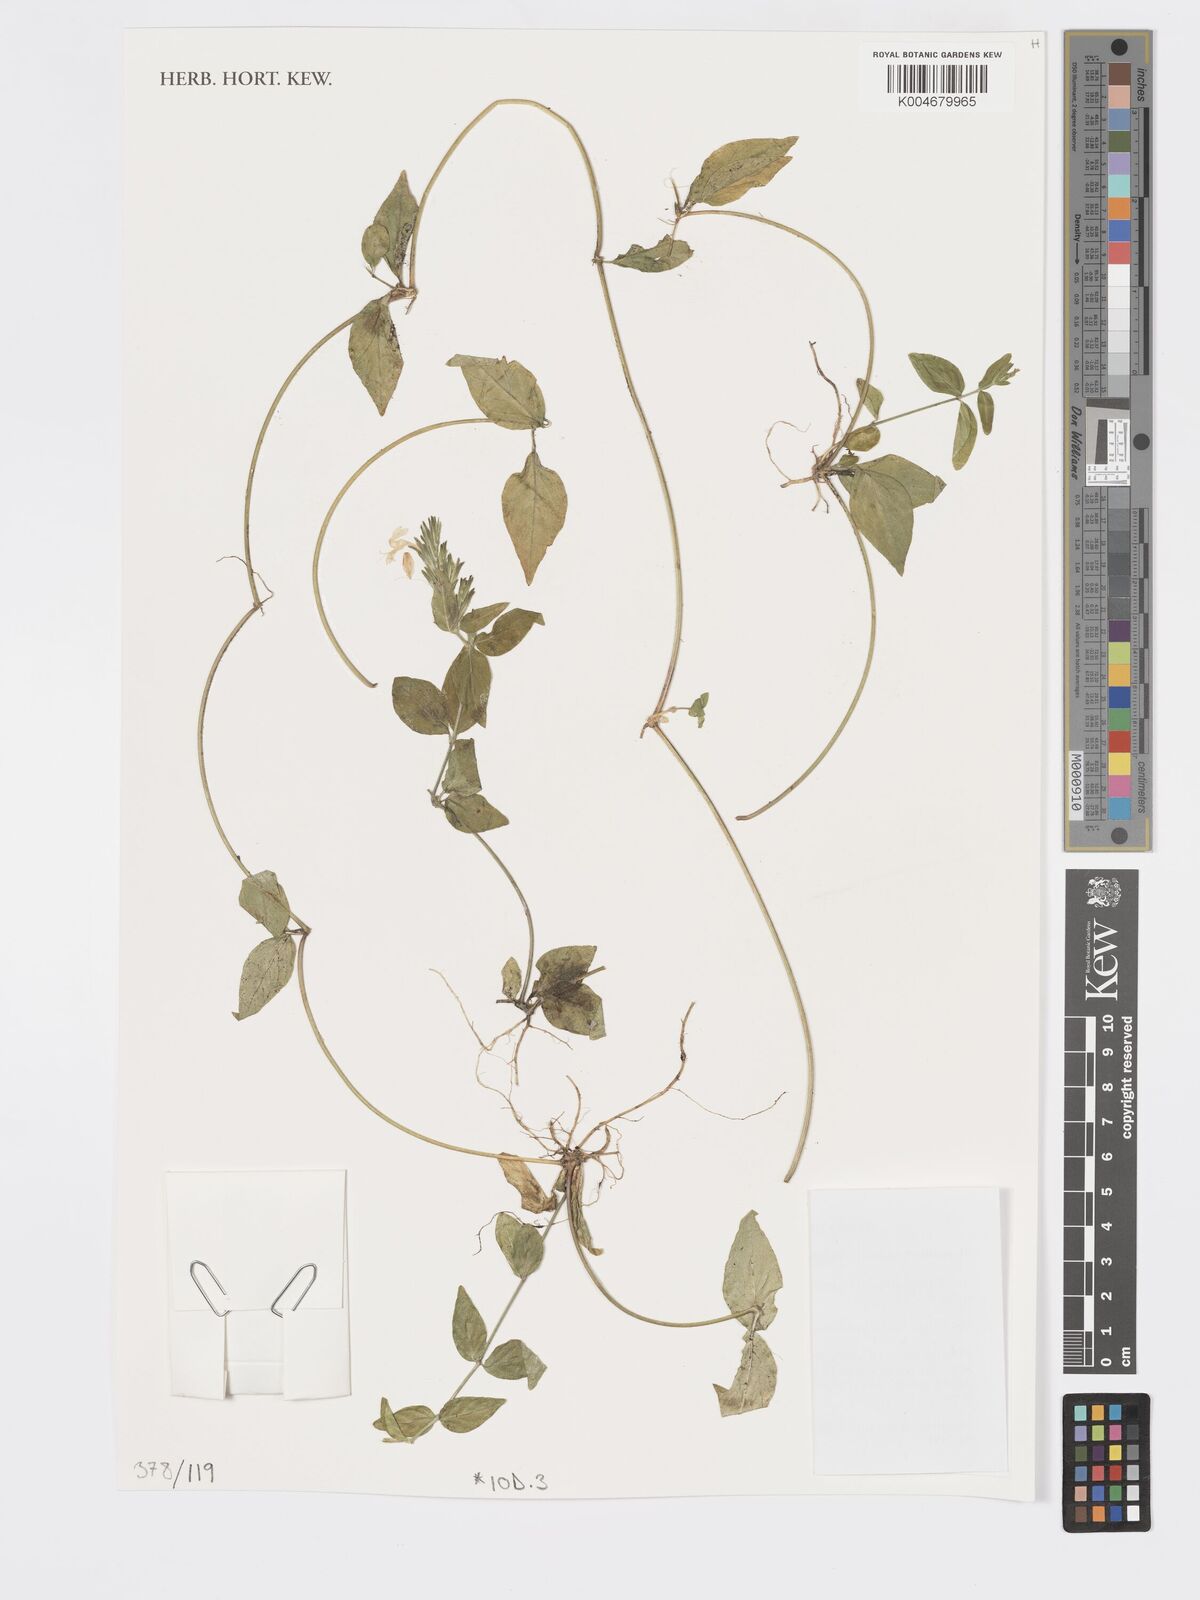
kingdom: Plantae
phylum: Tracheophyta
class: Magnoliopsida
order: Lamiales
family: Acanthaceae
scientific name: Acanthaceae
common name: Acanthaceae
